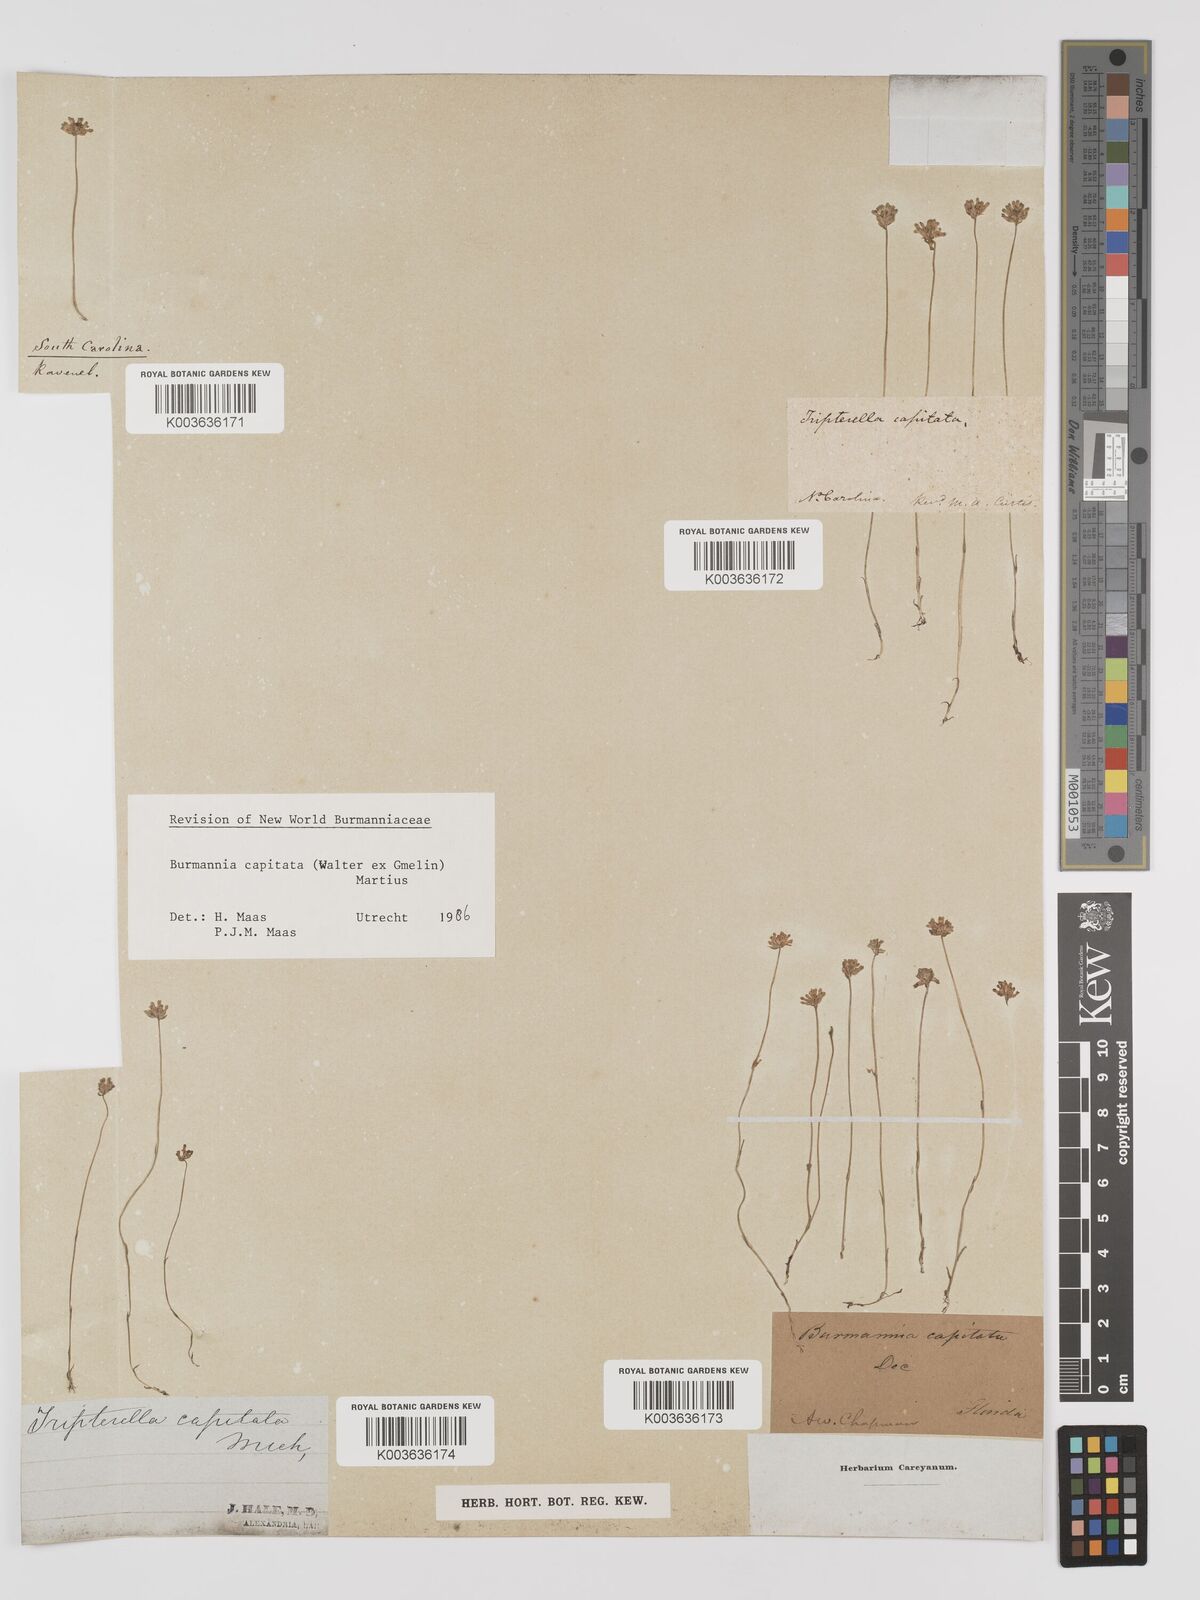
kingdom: Plantae
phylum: Tracheophyta
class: Liliopsida
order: Dioscoreales
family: Burmanniaceae
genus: Burmannia
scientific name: Burmannia capitata
